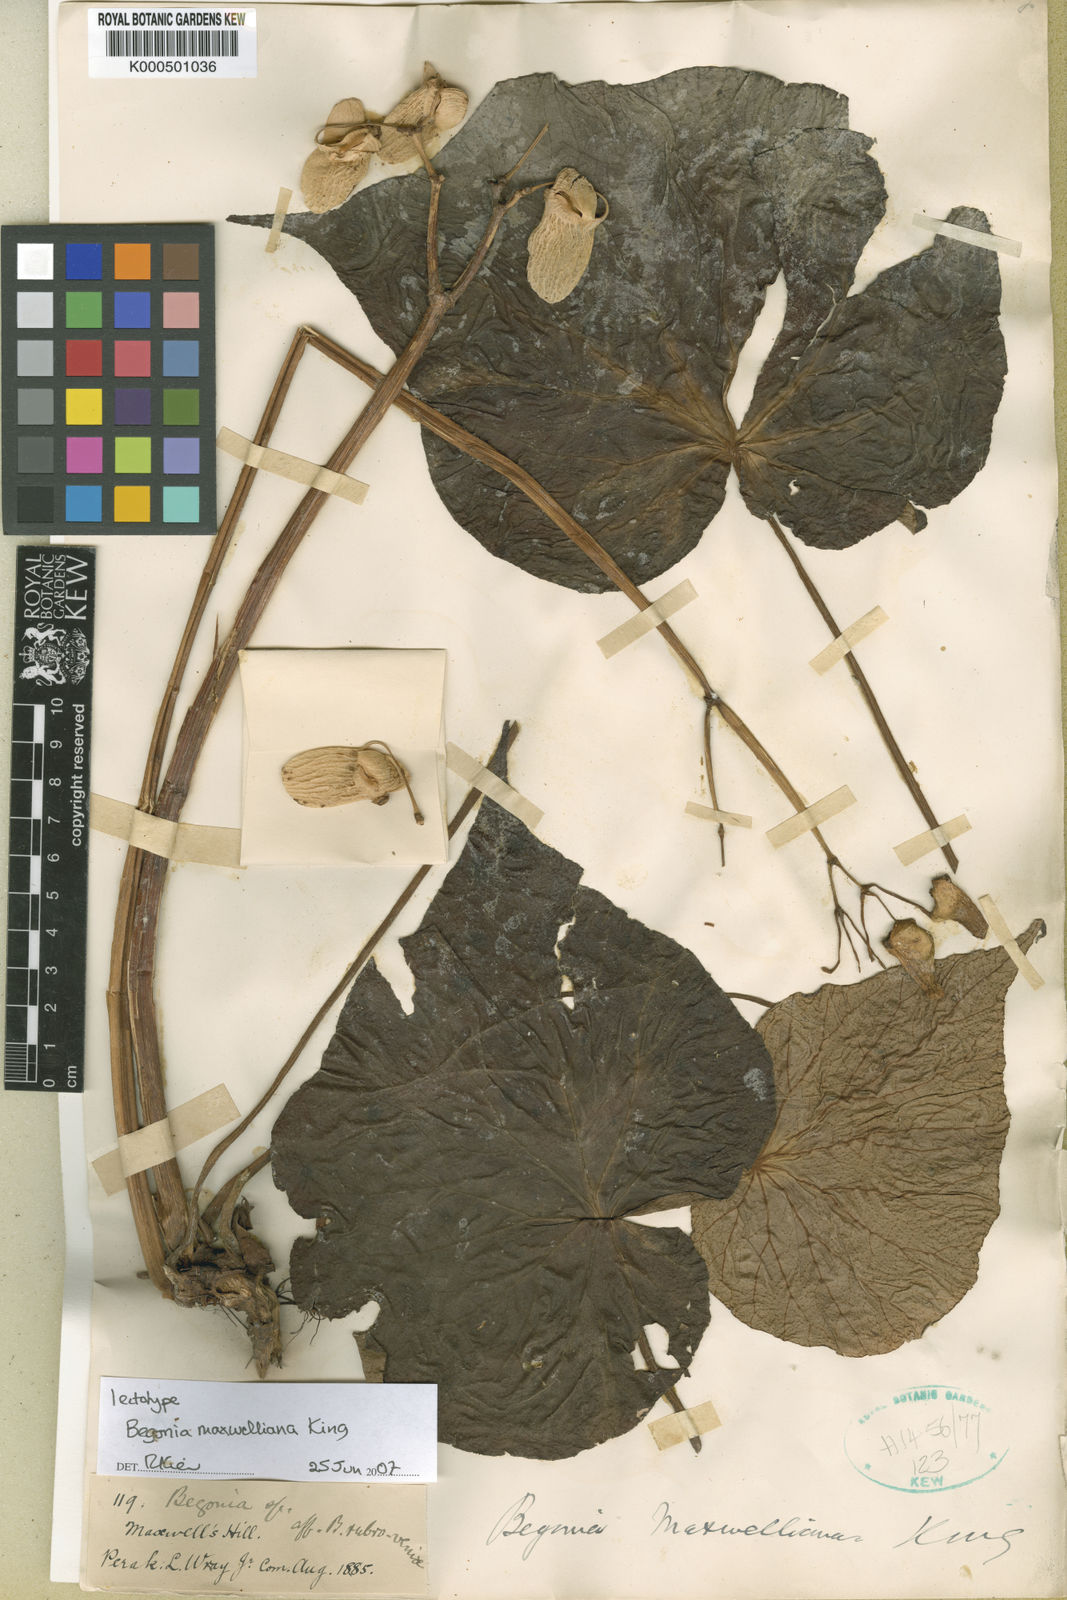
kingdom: Plantae
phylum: Tracheophyta
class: Magnoliopsida
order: Cucurbitales
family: Begoniaceae
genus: Begonia
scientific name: Begonia maxwelliana
